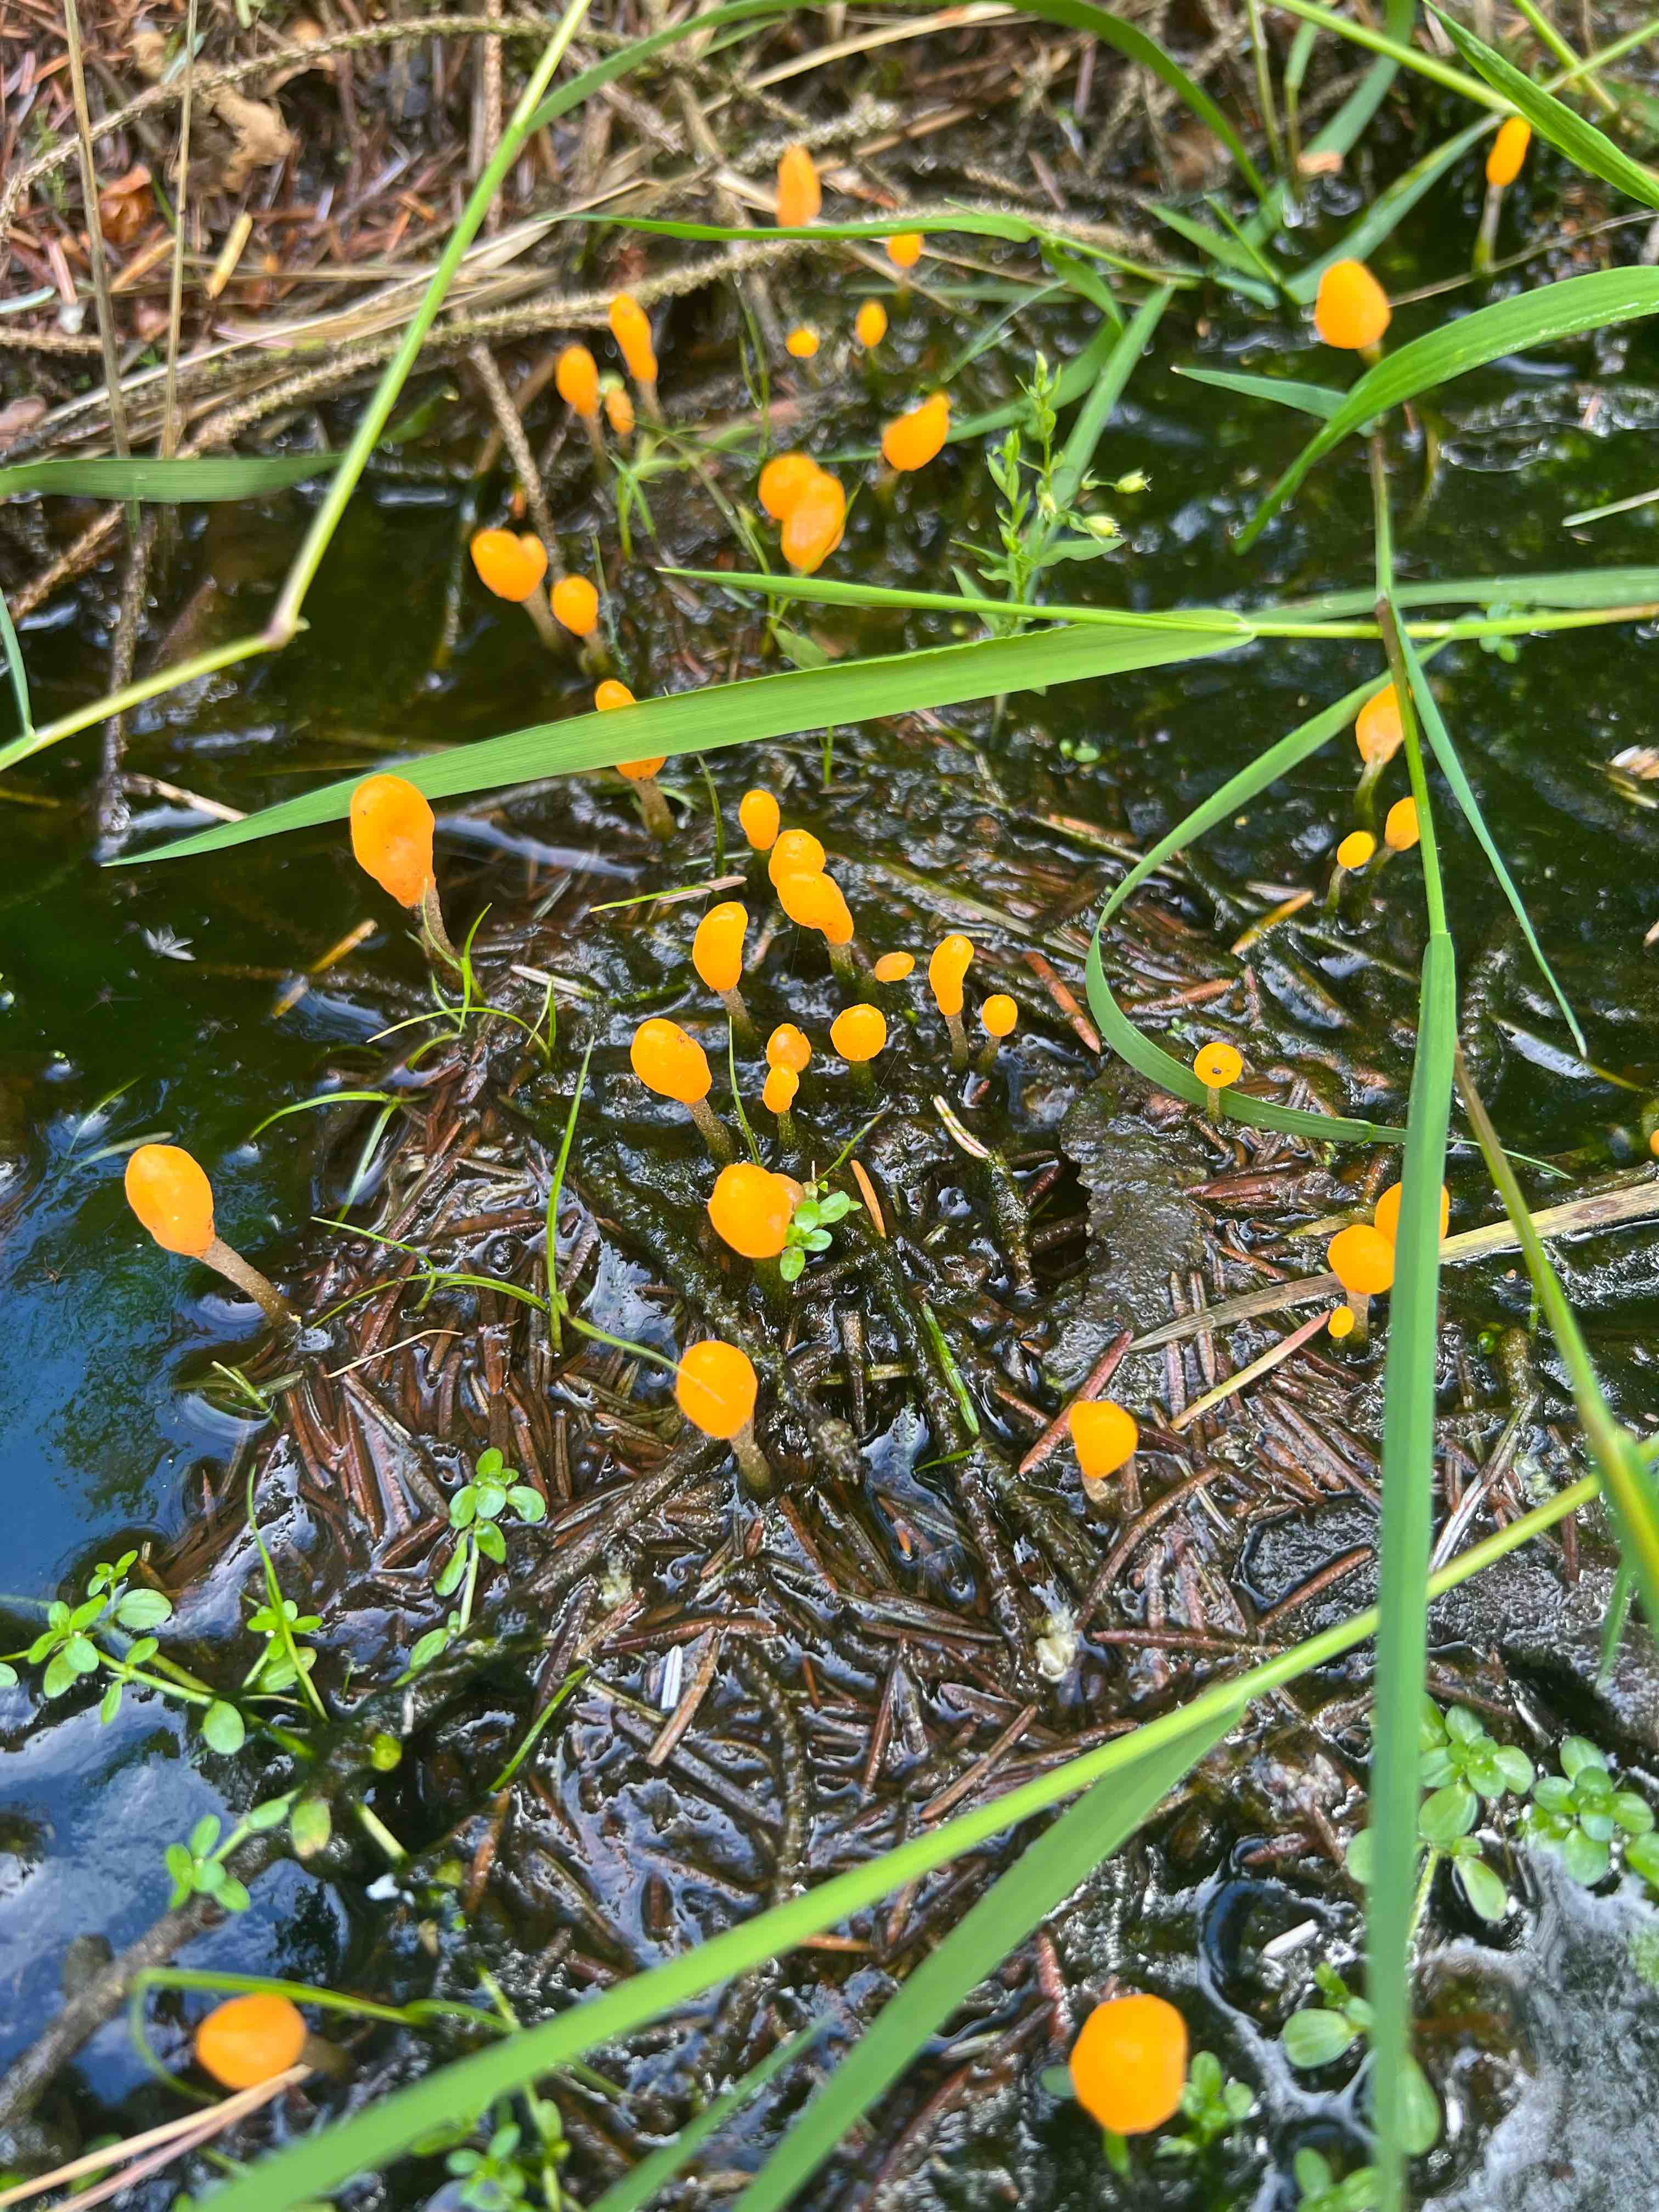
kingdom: Fungi
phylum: Ascomycota
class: Leotiomycetes
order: Helotiales
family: Cenangiaceae
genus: Mitrula
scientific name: Mitrula paludosa
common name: gul nøkketunge
